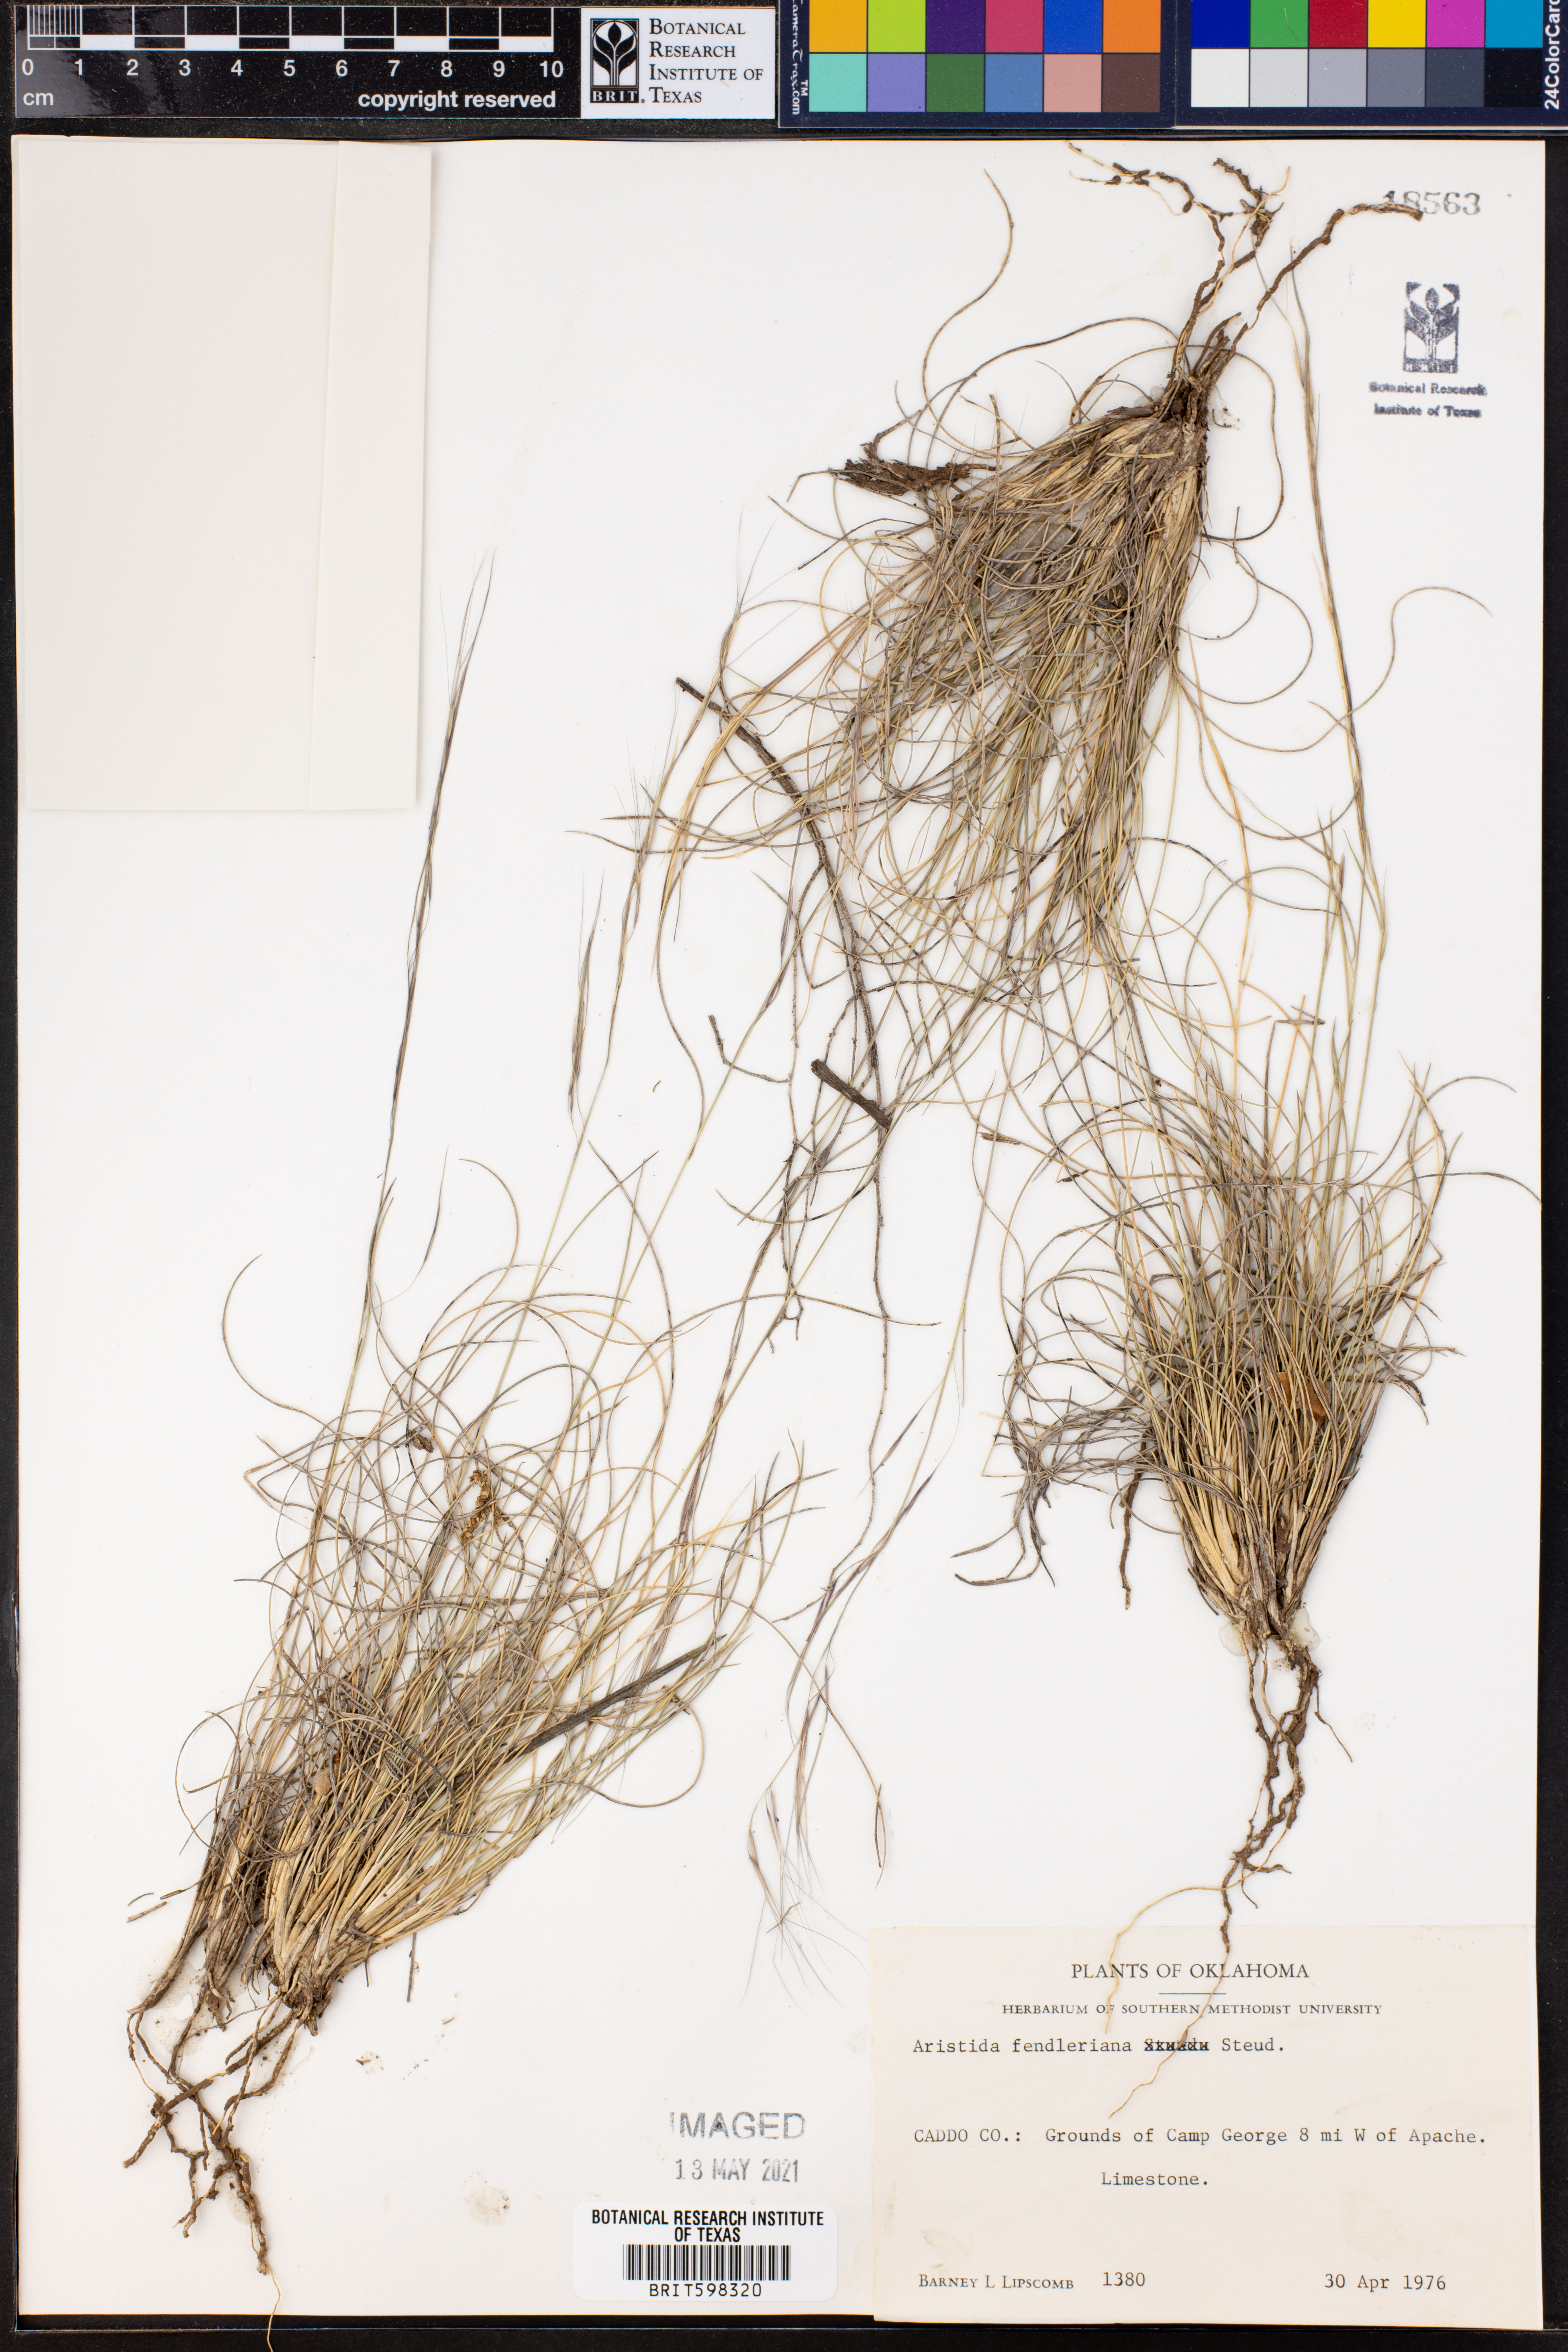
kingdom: Plantae
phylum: Tracheophyta
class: Liliopsida
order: Poales
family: Poaceae
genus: Aristida
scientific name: Aristida fendleriana
